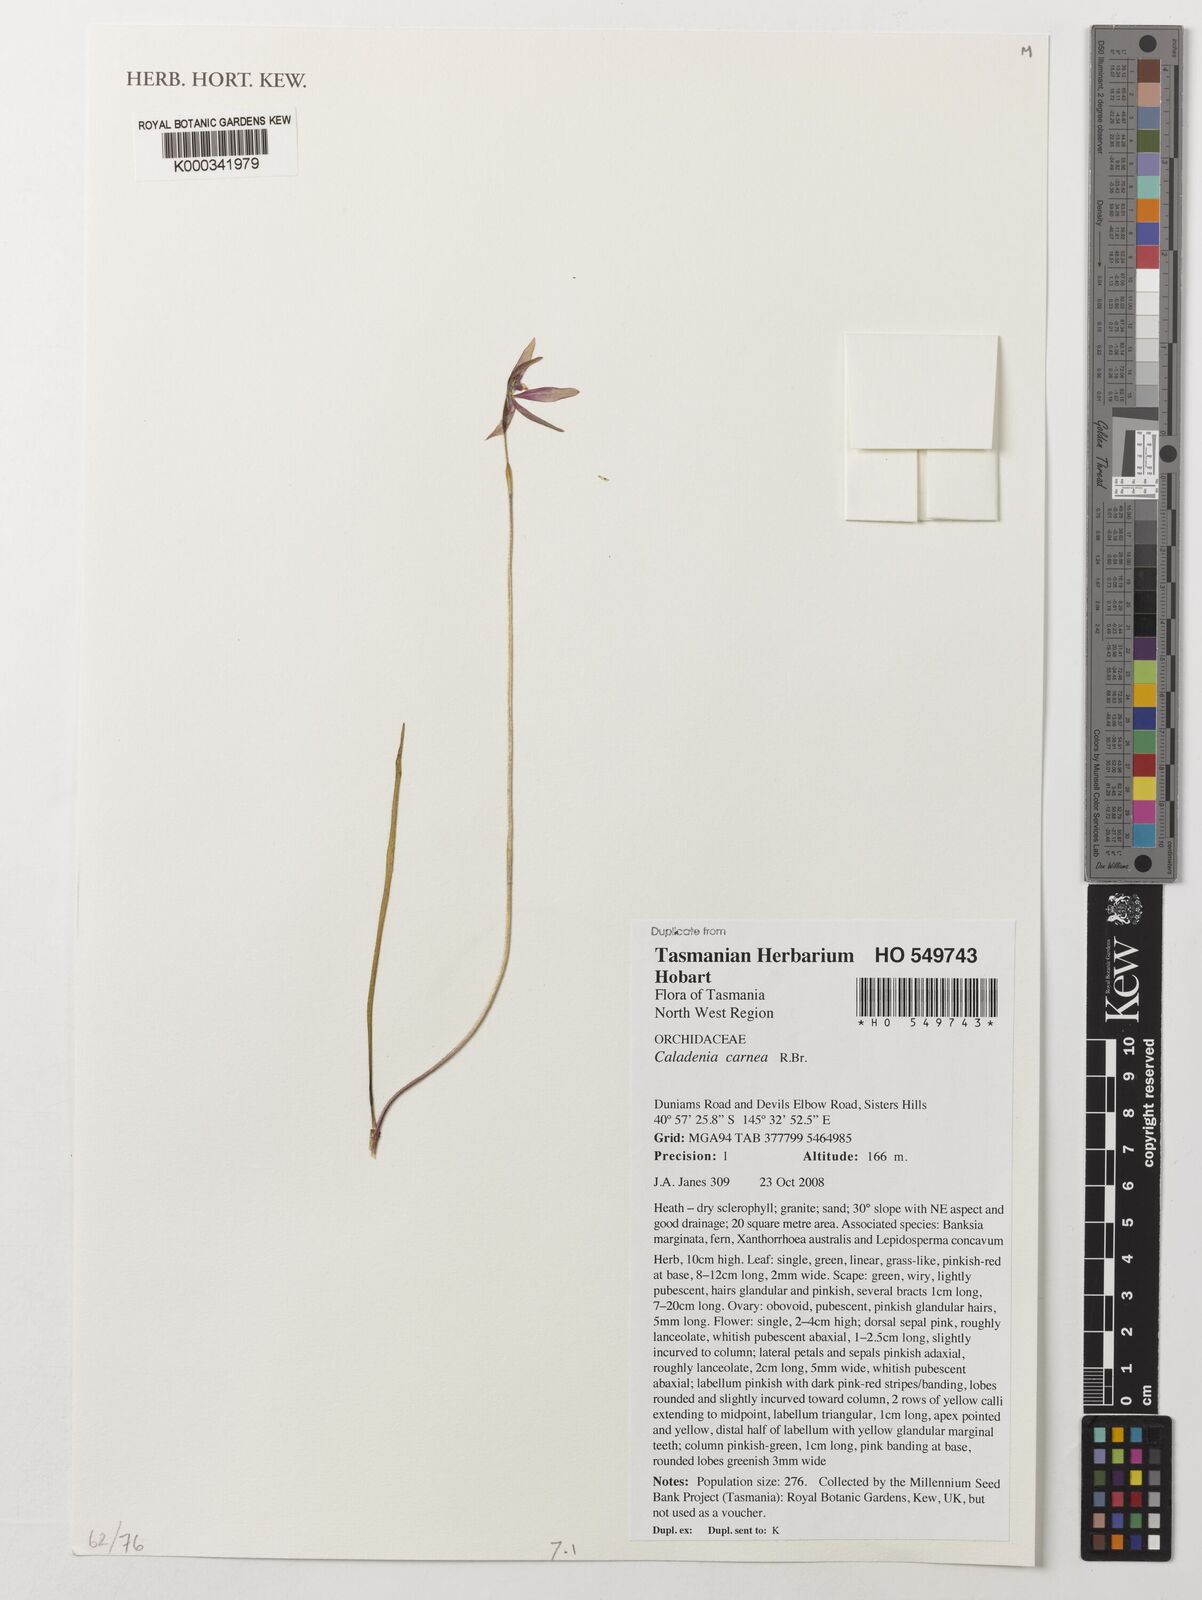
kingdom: Plantae
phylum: Tracheophyta
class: Liliopsida
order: Asparagales
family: Orchidaceae
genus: Caladenia
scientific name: Caladenia carnea
